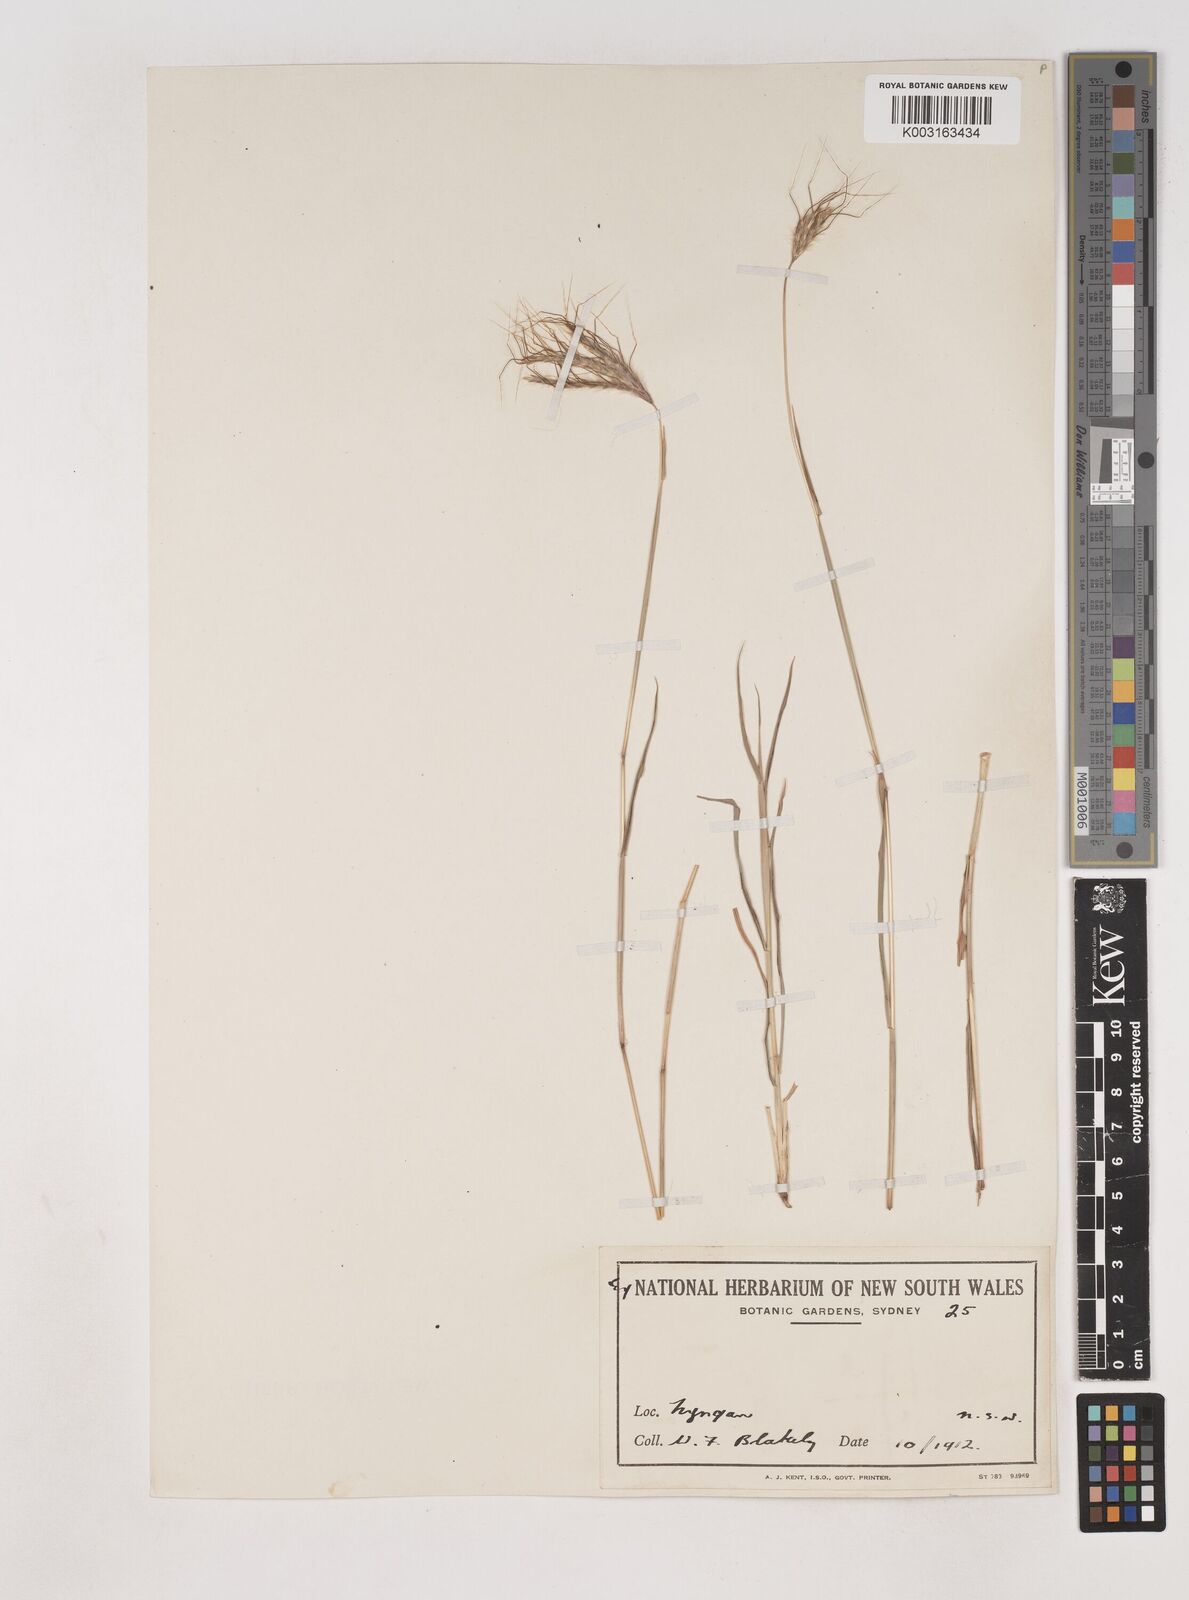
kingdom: Plantae
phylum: Tracheophyta
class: Liliopsida
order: Poales
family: Poaceae
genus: Dichanthium
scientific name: Dichanthium sericeum
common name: Silky bluestem
